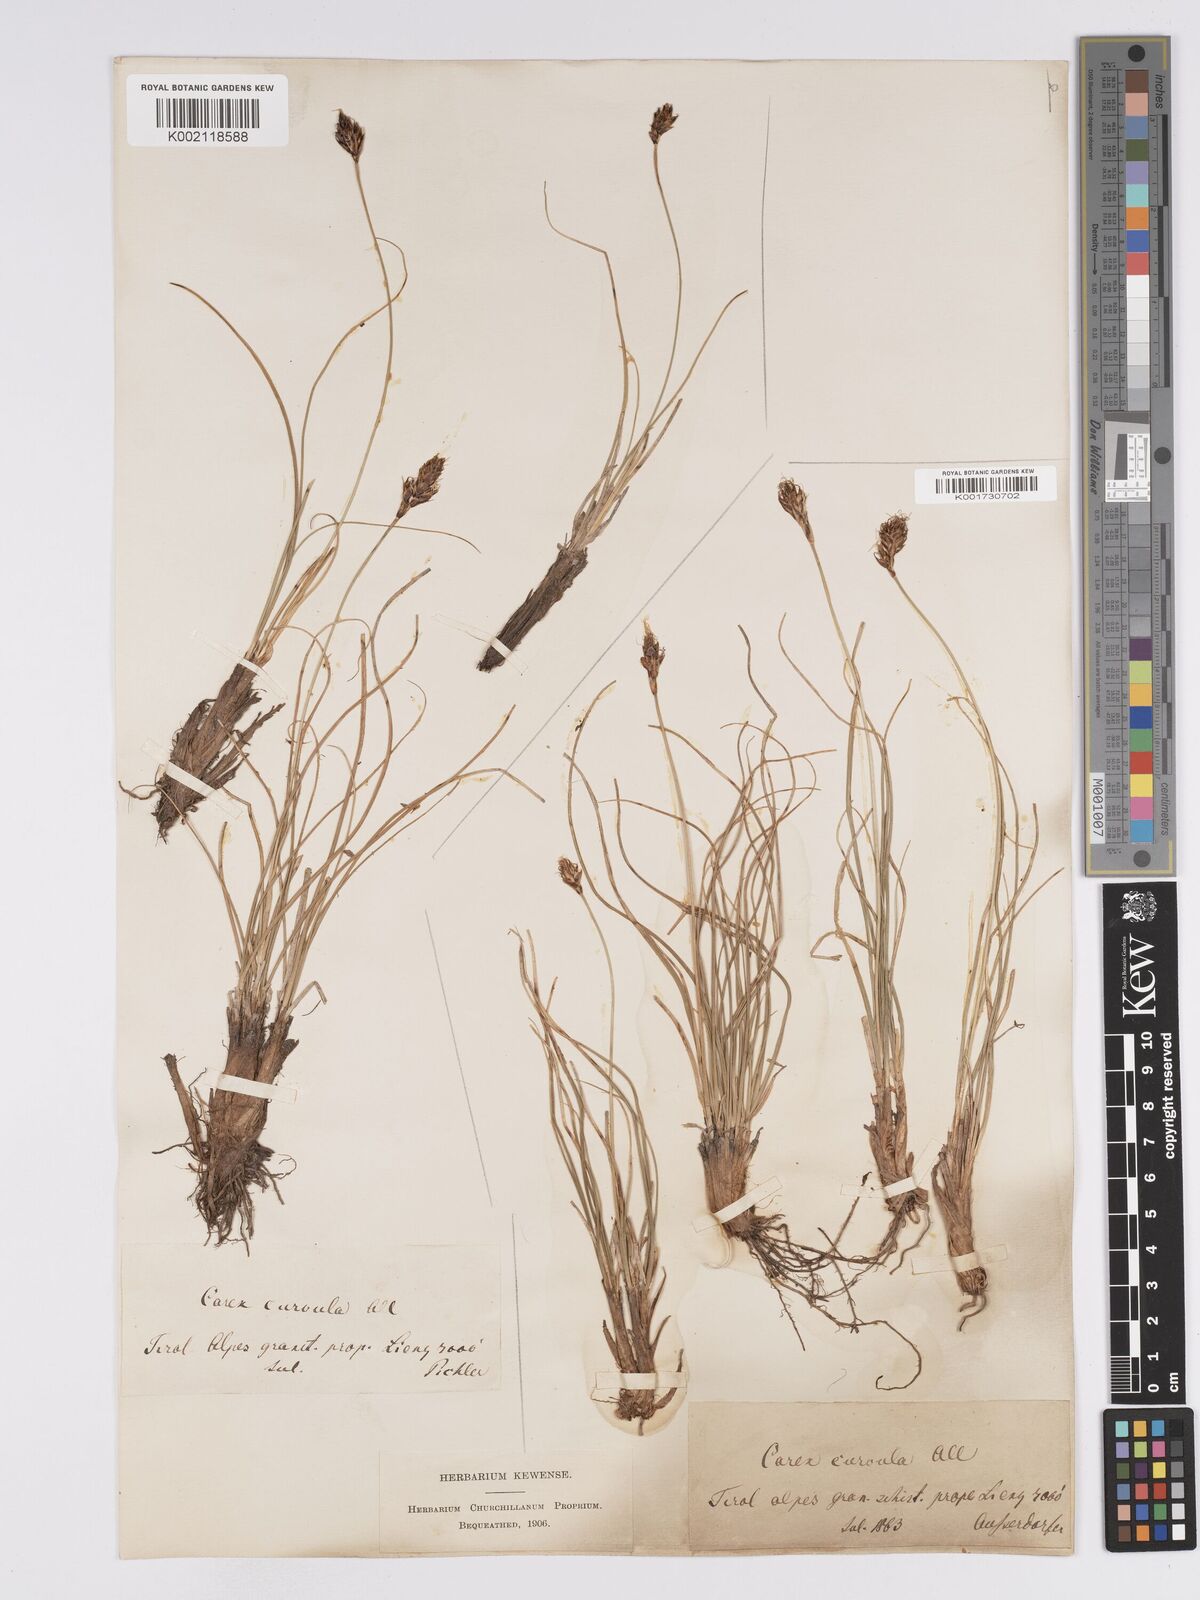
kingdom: Plantae
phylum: Tracheophyta
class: Liliopsida
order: Poales
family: Cyperaceae
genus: Carex
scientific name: Carex curvula
